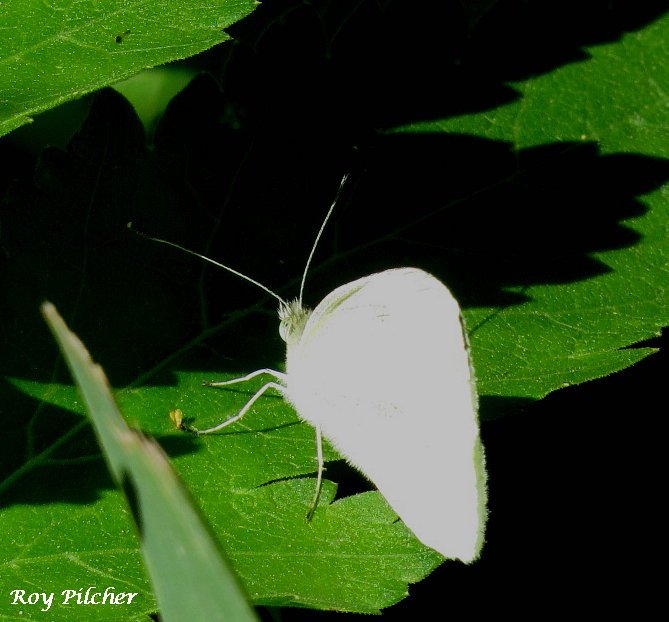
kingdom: Animalia
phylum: Arthropoda
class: Insecta
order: Lepidoptera
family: Pieridae
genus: Pieris
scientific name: Pieris rapae
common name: Cabbage White
